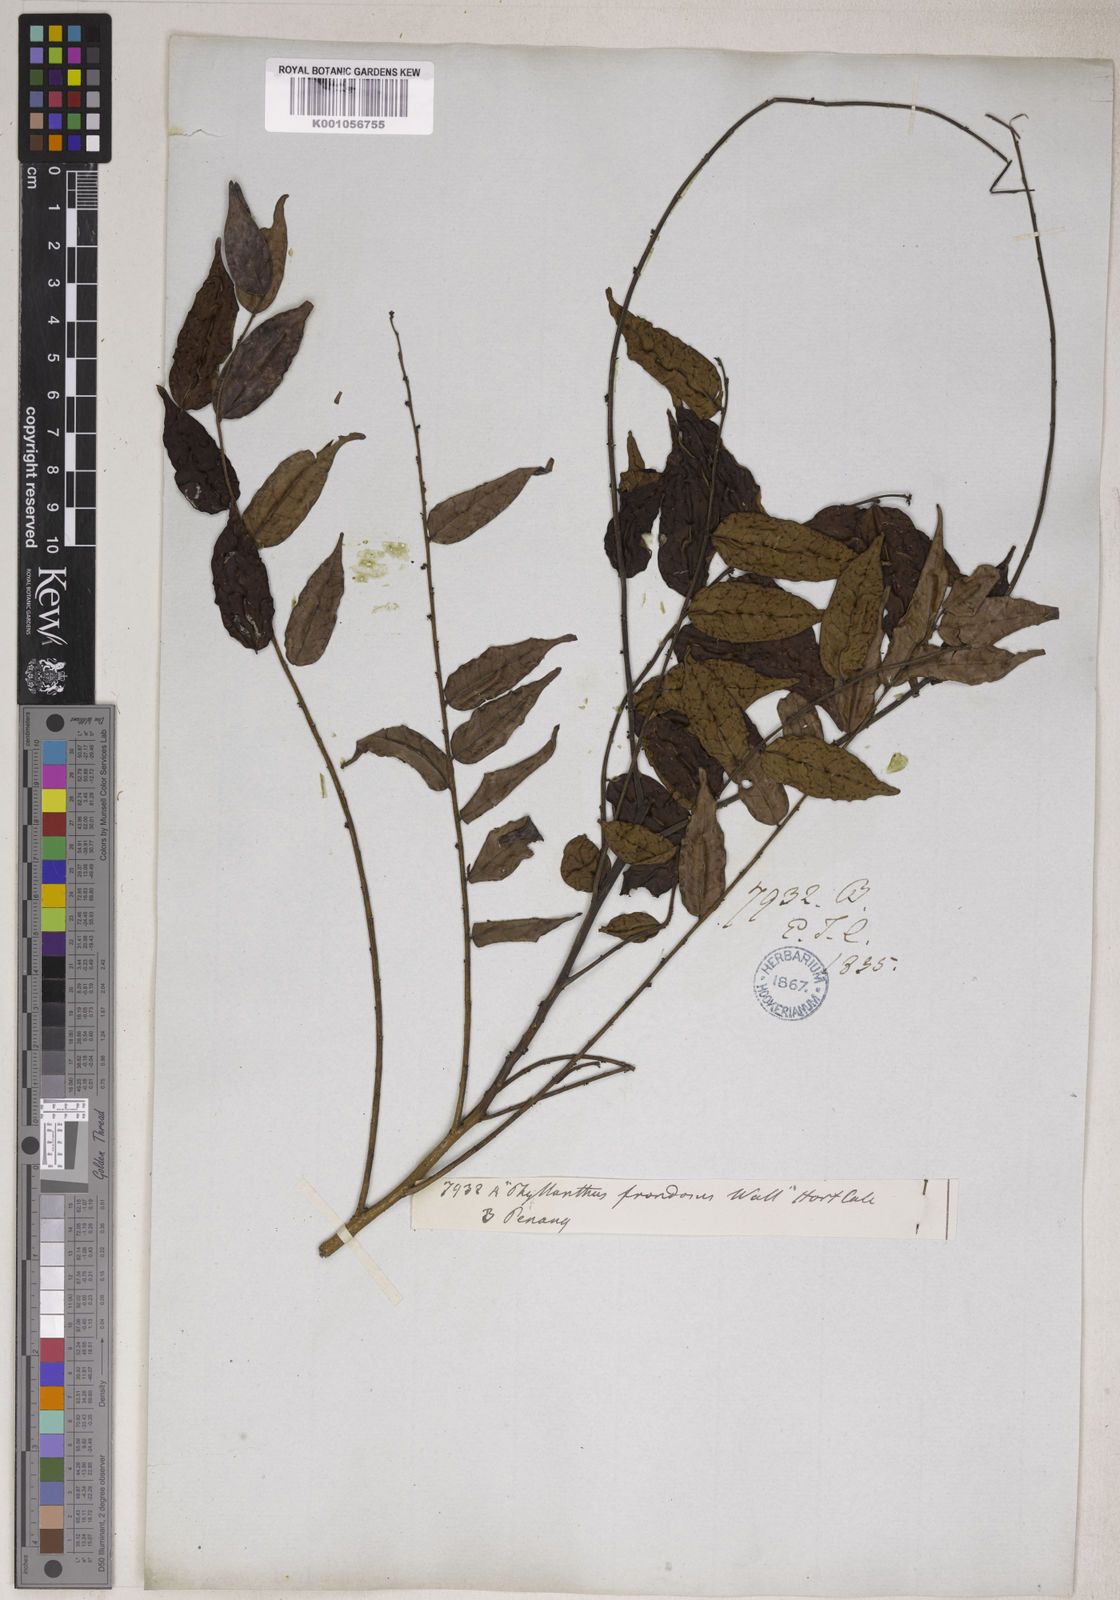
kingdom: Plantae
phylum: Tracheophyta
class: Magnoliopsida
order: Malpighiales
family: Phyllanthaceae
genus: Phyllanthus
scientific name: Phyllanthus oxyphyllus
